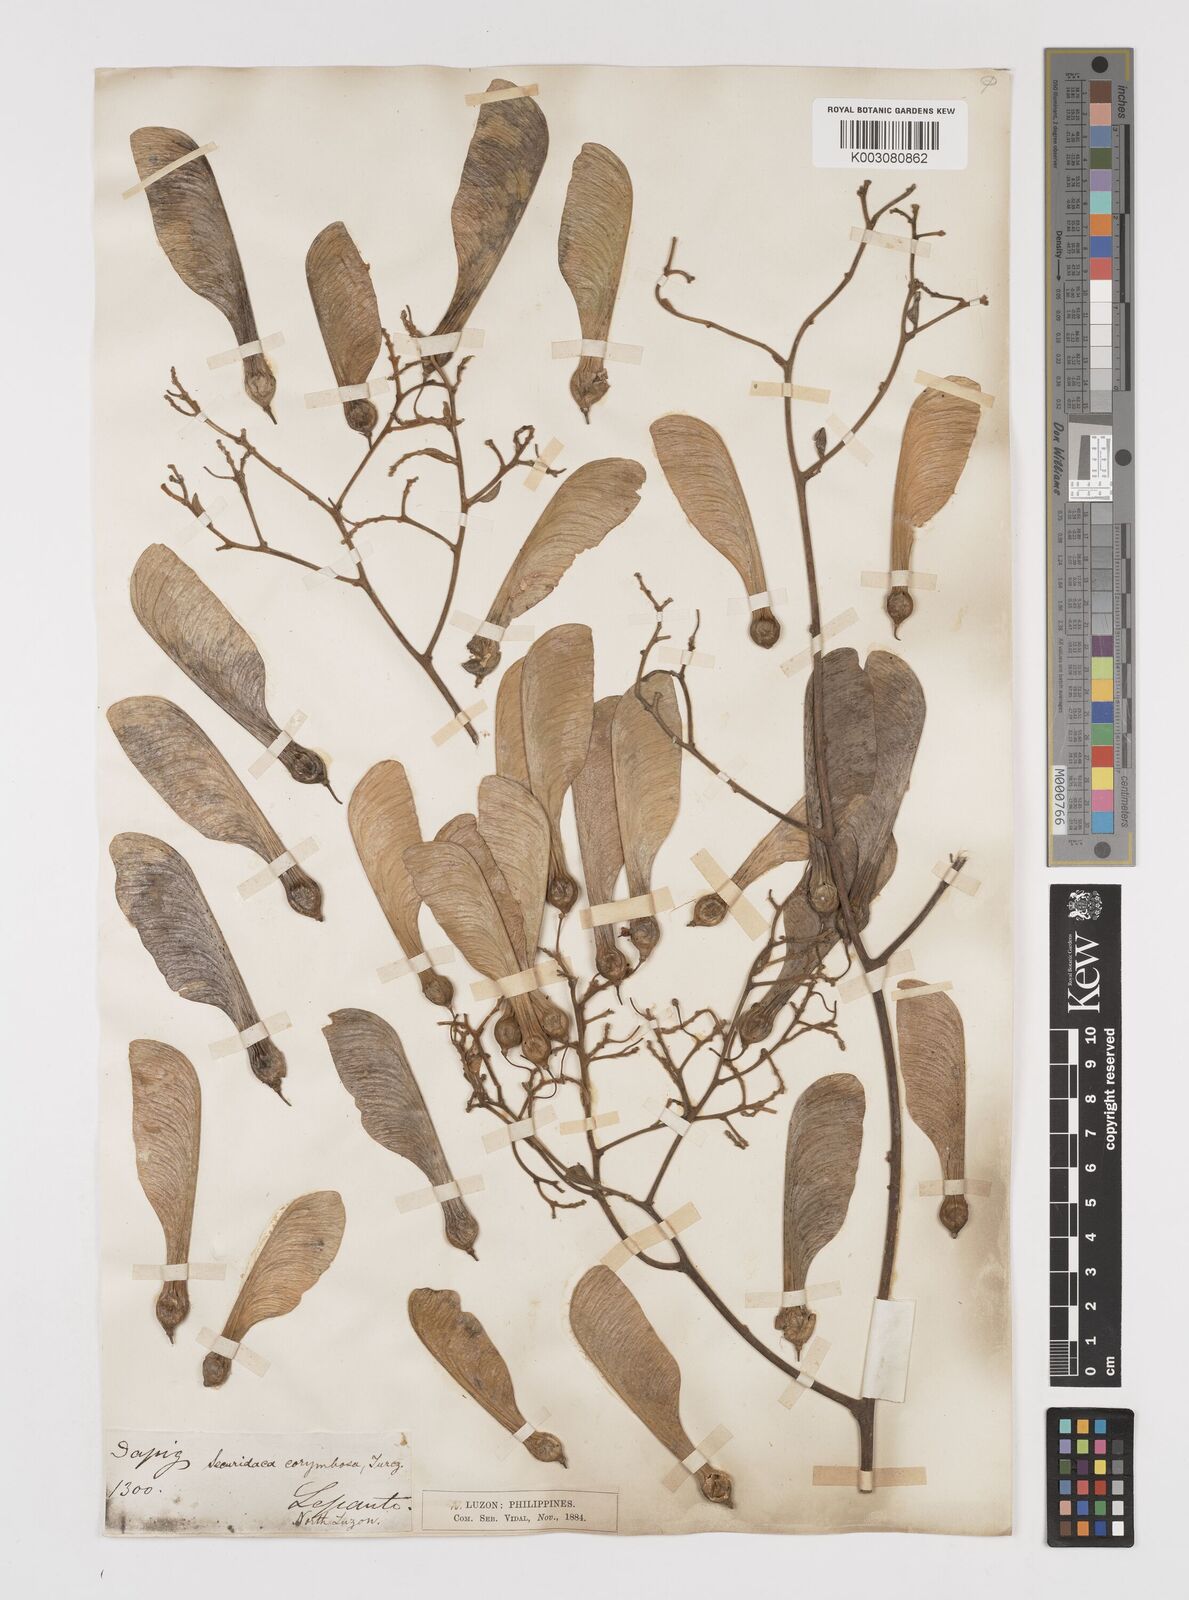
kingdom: Plantae
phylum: Tracheophyta
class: Magnoliopsida
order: Fabales
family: Polygalaceae
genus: Securidaca
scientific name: Securidaca inappendiculata
